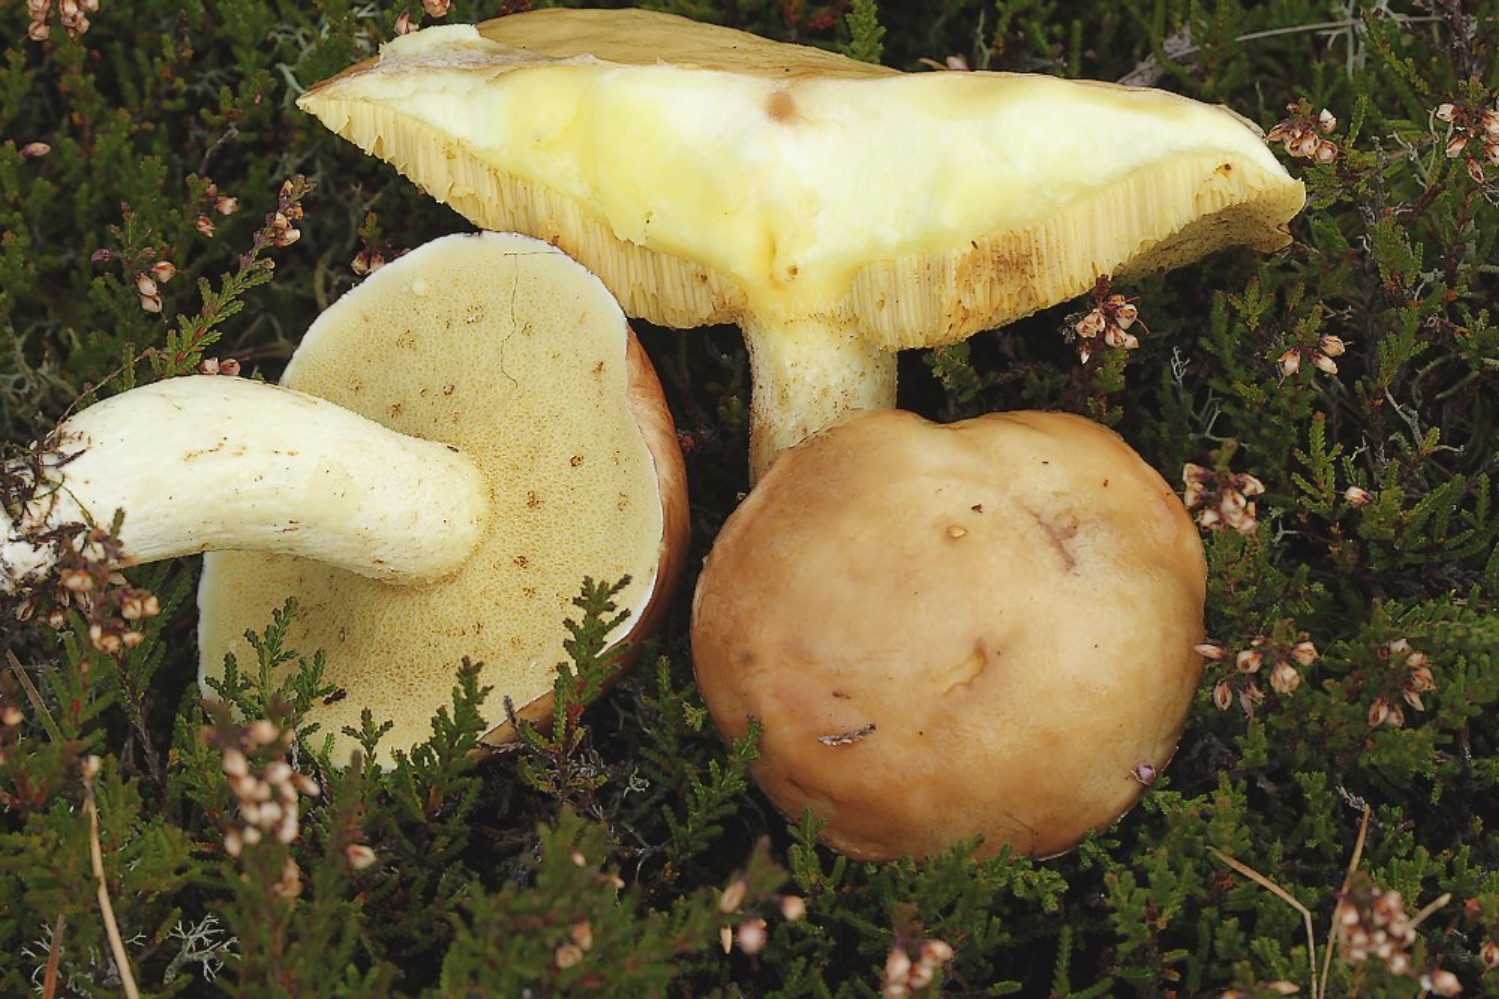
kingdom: Fungi
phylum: Basidiomycota
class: Agaricomycetes
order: Boletales
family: Suillaceae
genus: Suillus
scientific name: Suillus granulatus
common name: kornet slimrørhat
